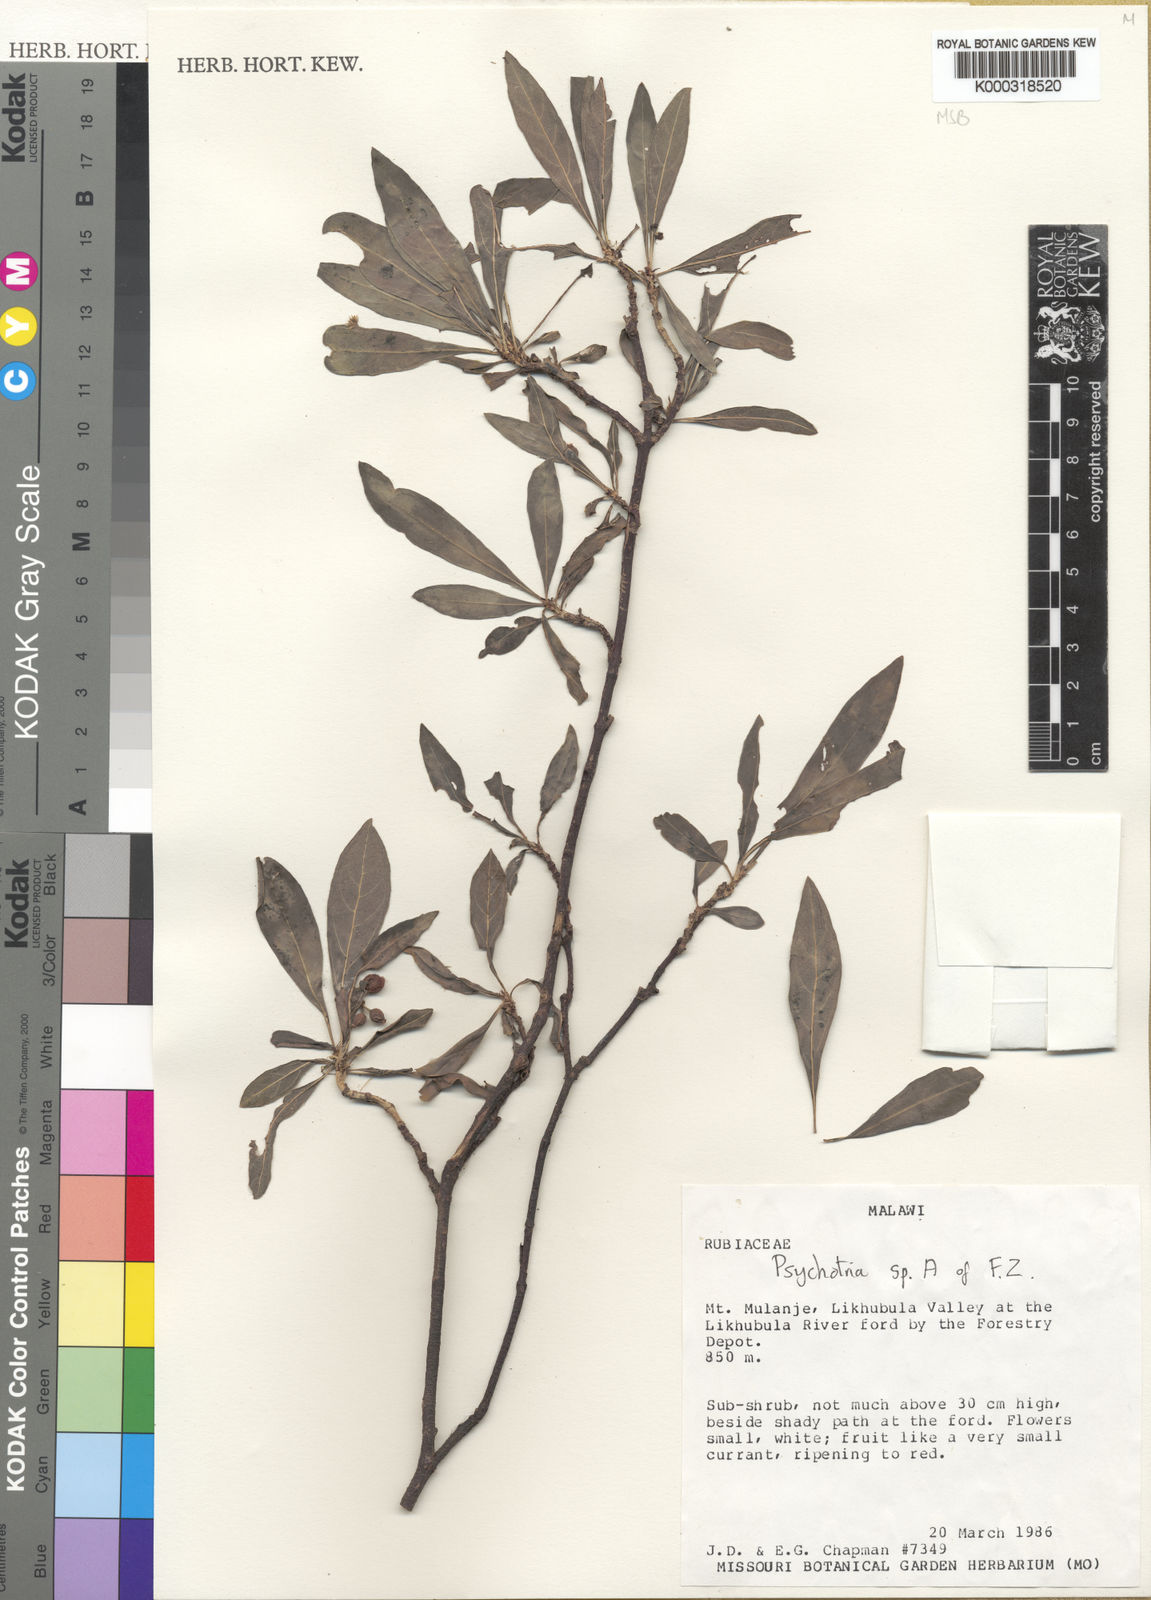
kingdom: Plantae
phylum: Tracheophyta
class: Magnoliopsida
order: Gentianales
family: Rubiaceae
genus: Psychotria
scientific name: Psychotria
